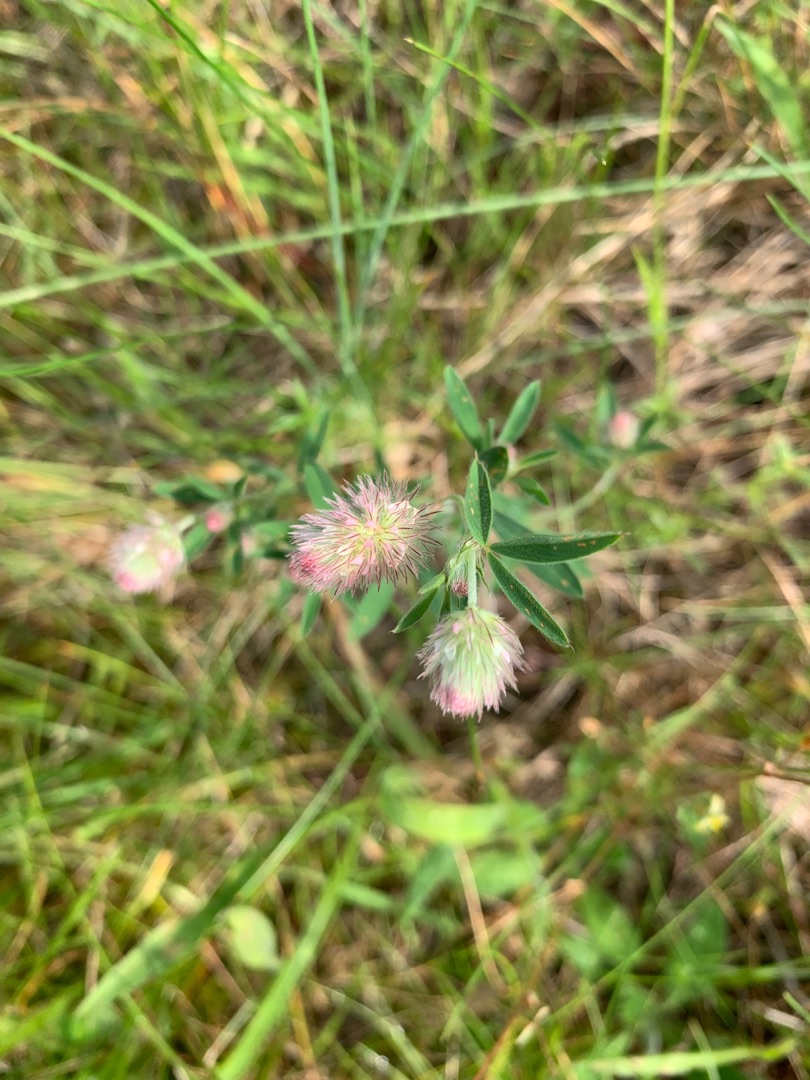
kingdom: Plantae
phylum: Tracheophyta
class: Magnoliopsida
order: Fabales
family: Fabaceae
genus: Trifolium
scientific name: Trifolium arvense
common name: Hare-kløver
